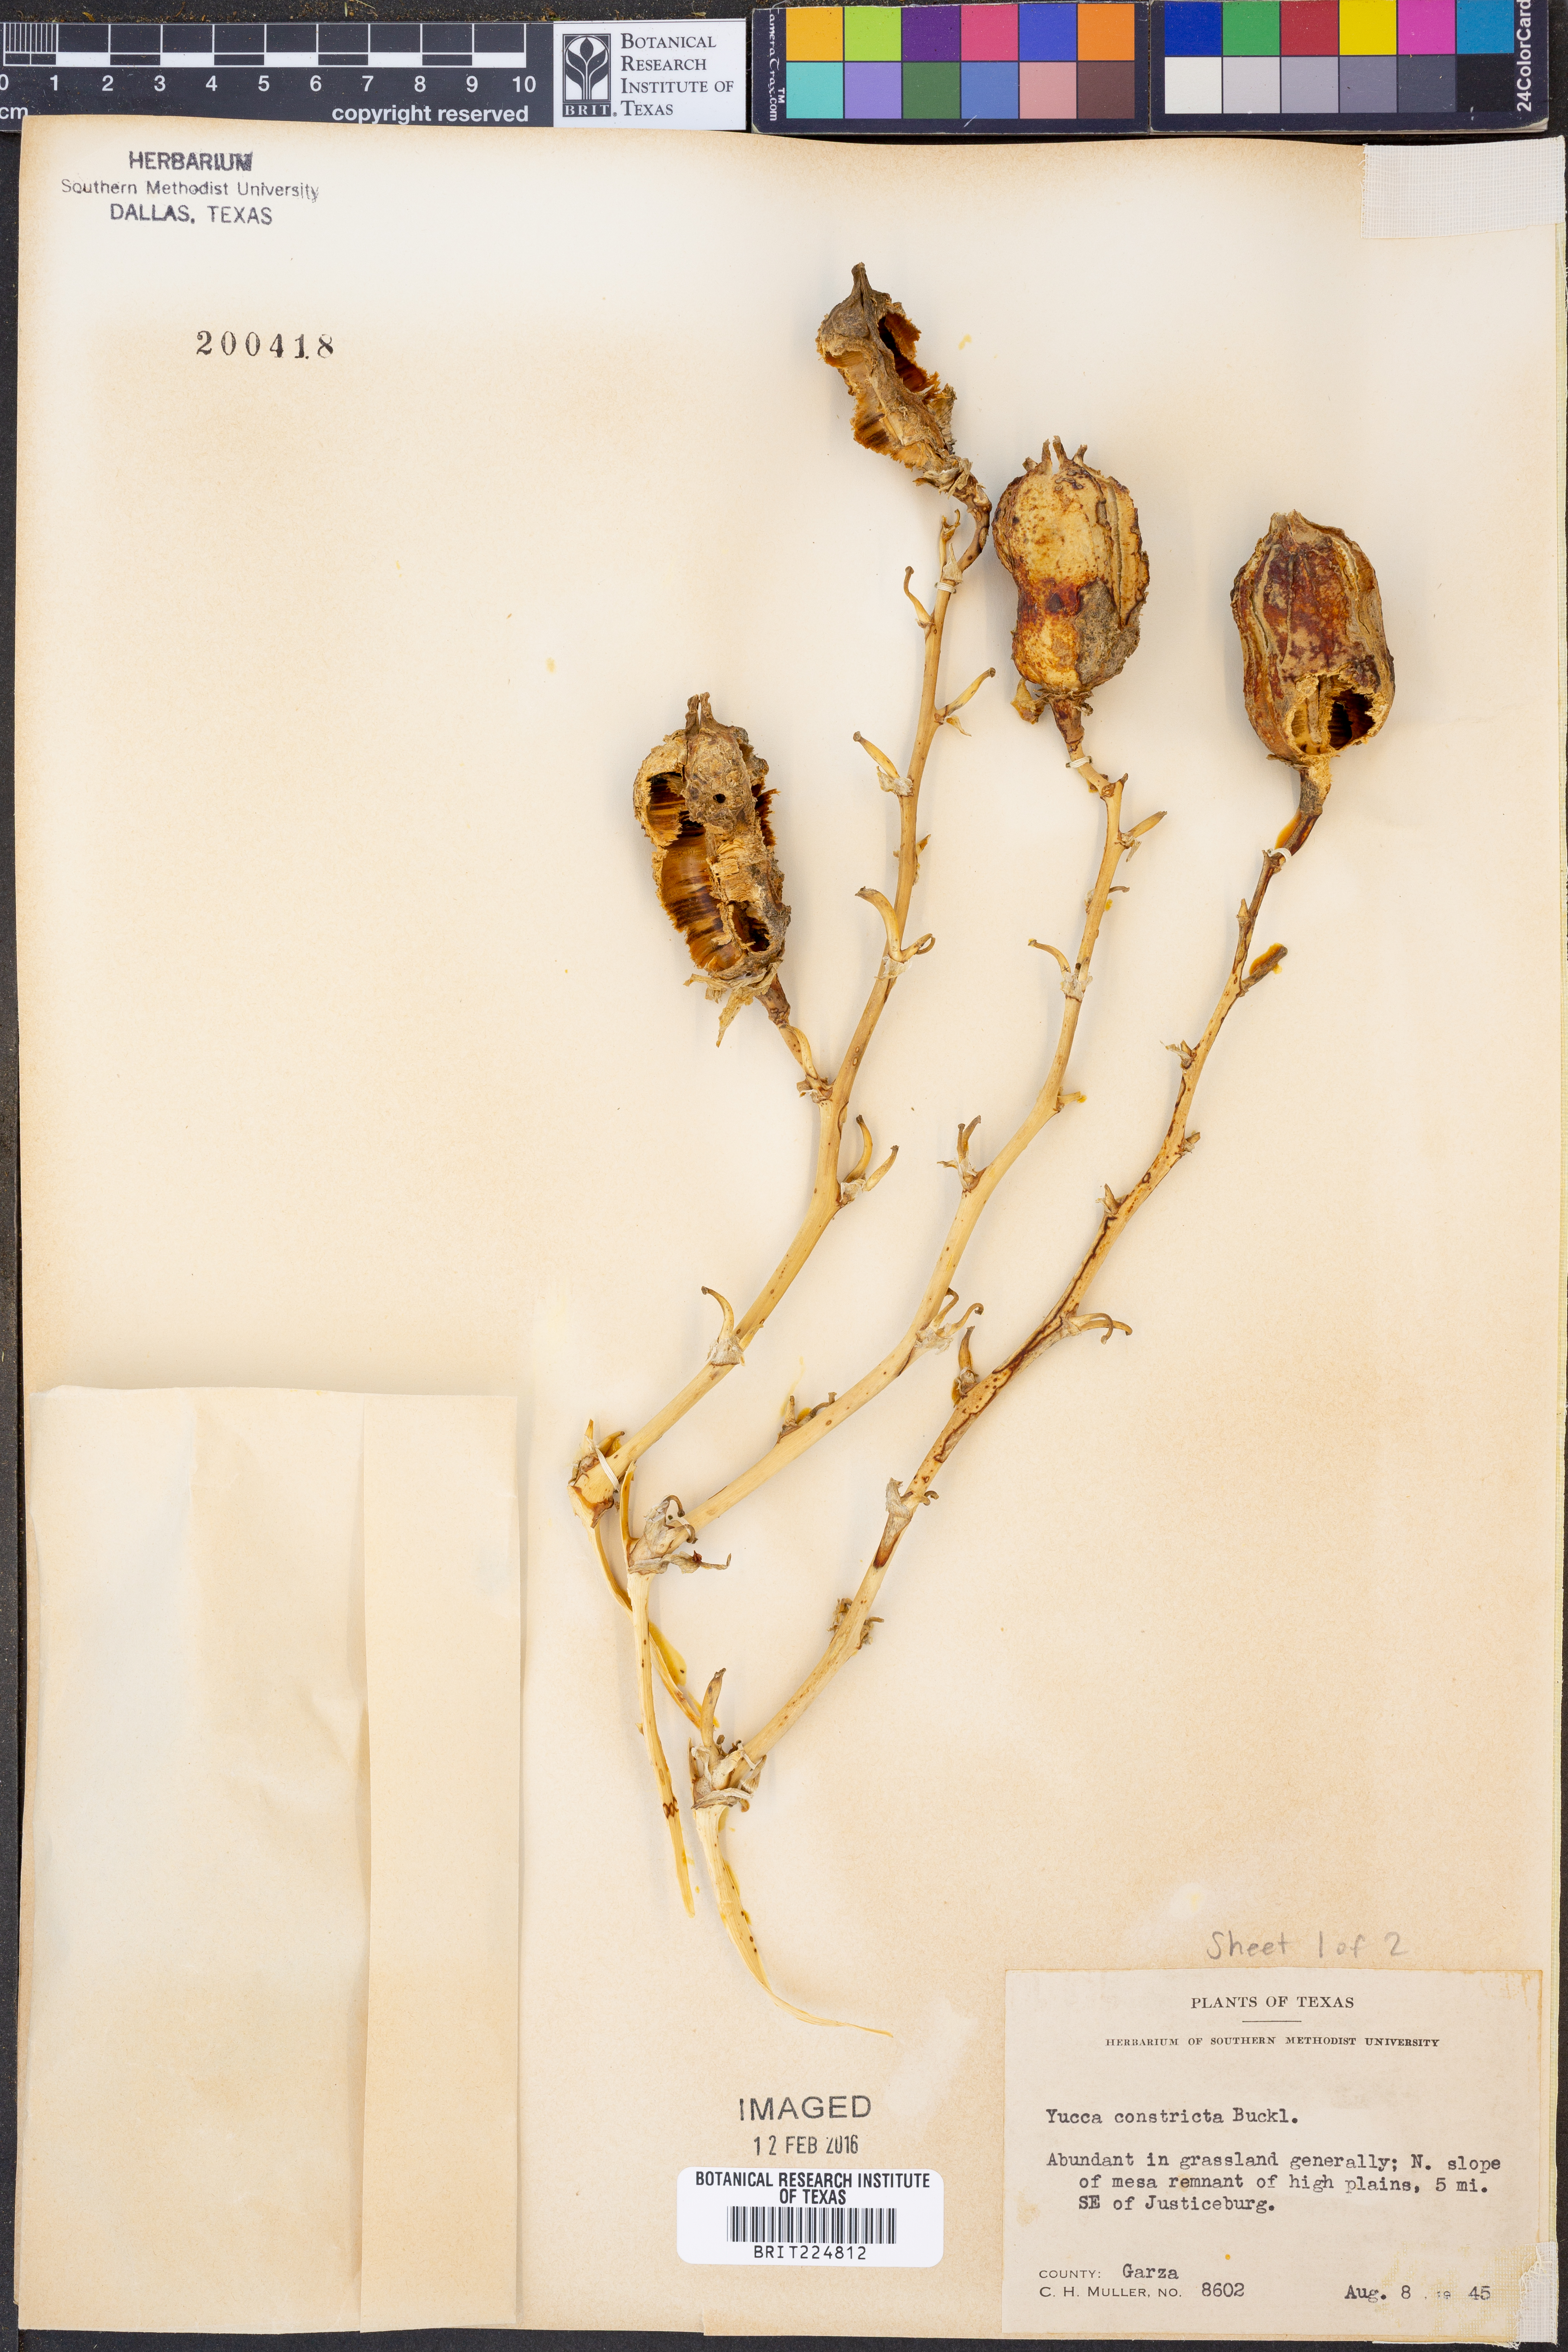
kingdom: Plantae
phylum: Tracheophyta
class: Liliopsida
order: Asparagales
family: Asparagaceae
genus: Yucca
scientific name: Yucca constricta
